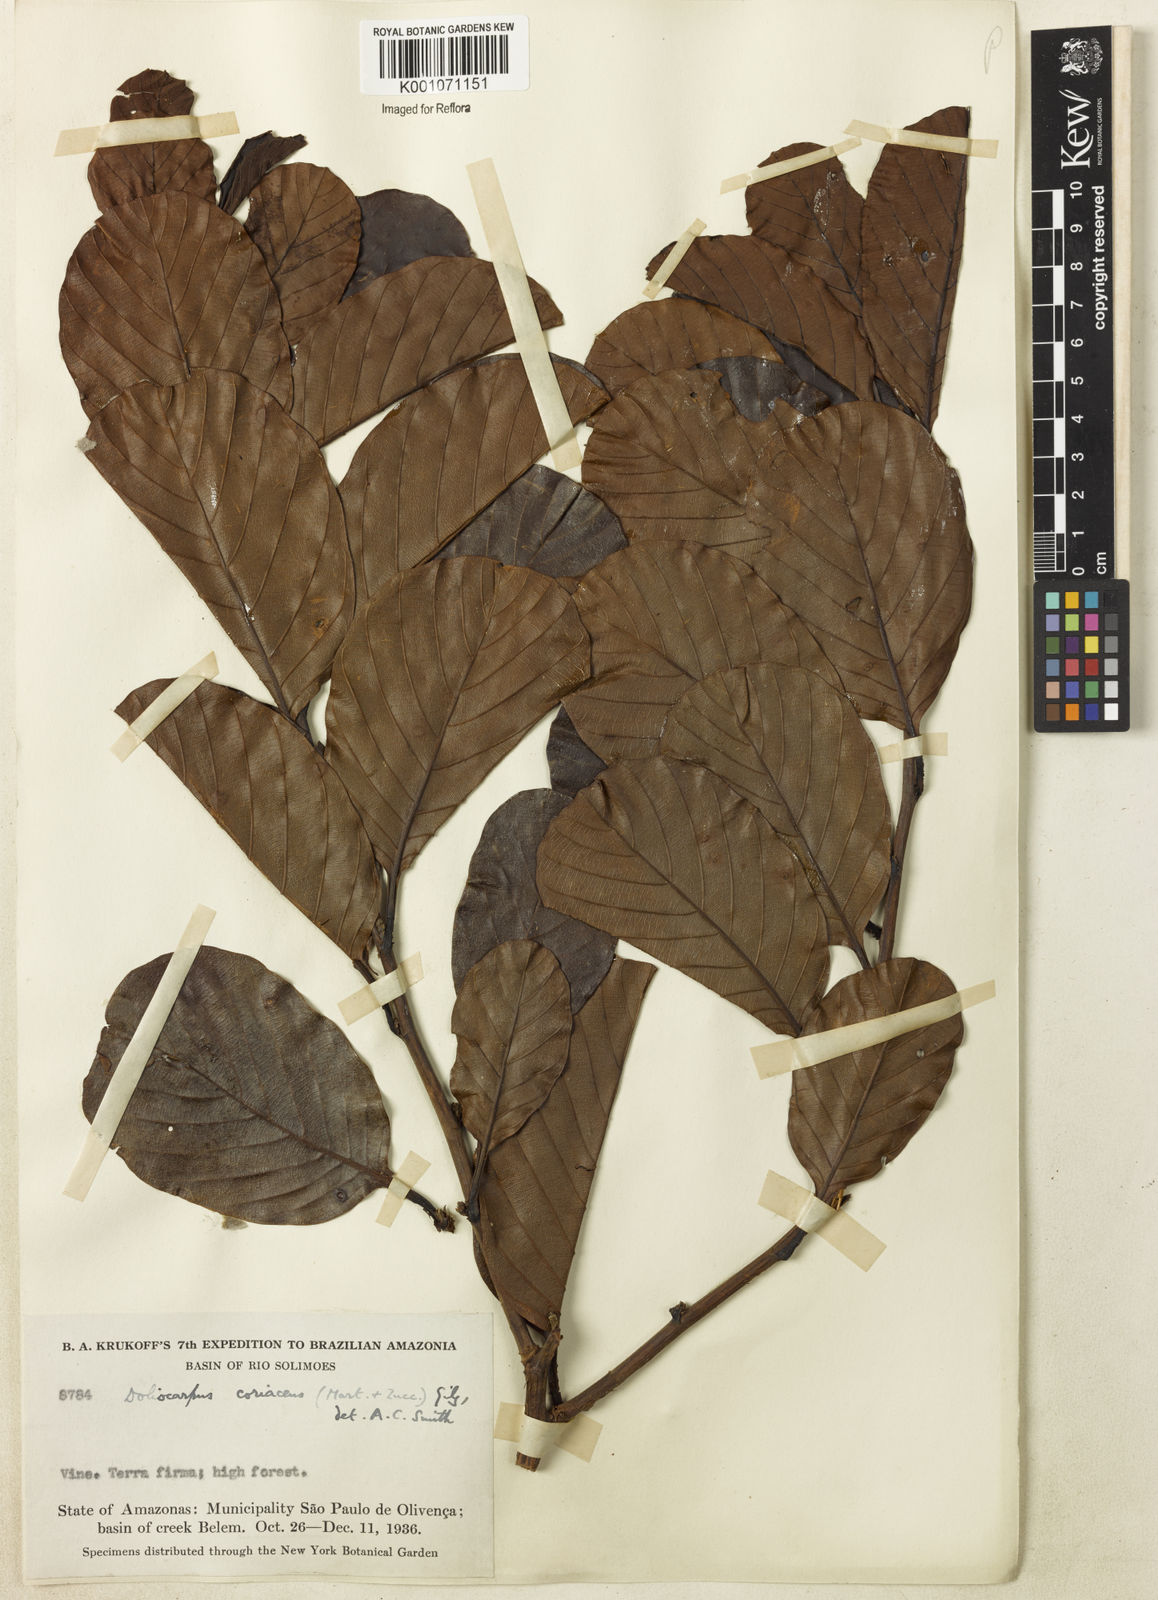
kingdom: Plantae
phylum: Tracheophyta
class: Magnoliopsida
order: Dilleniales
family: Dilleniaceae
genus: Pinzona
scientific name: Pinzona coriacea
